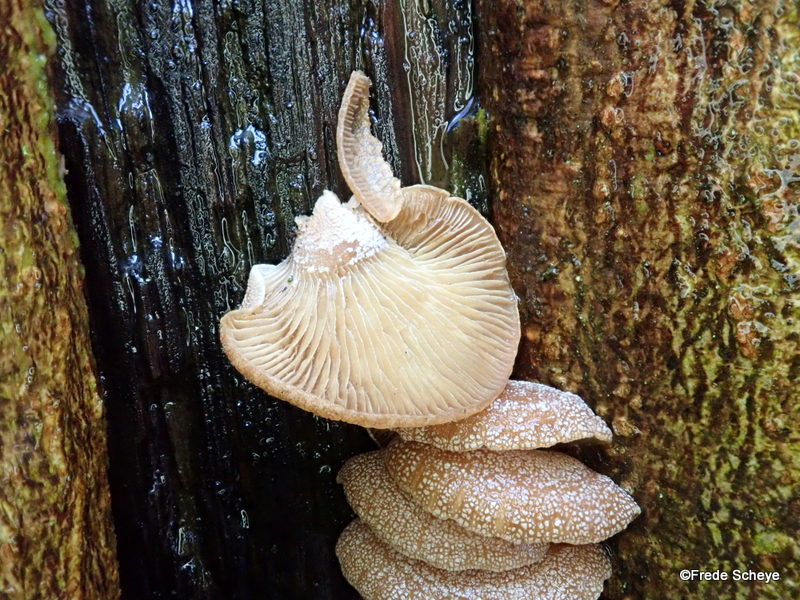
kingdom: Fungi
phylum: Basidiomycota
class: Agaricomycetes
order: Agaricales
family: Mycenaceae
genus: Panellus
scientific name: Panellus stipticus
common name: kliddet epaulethat
